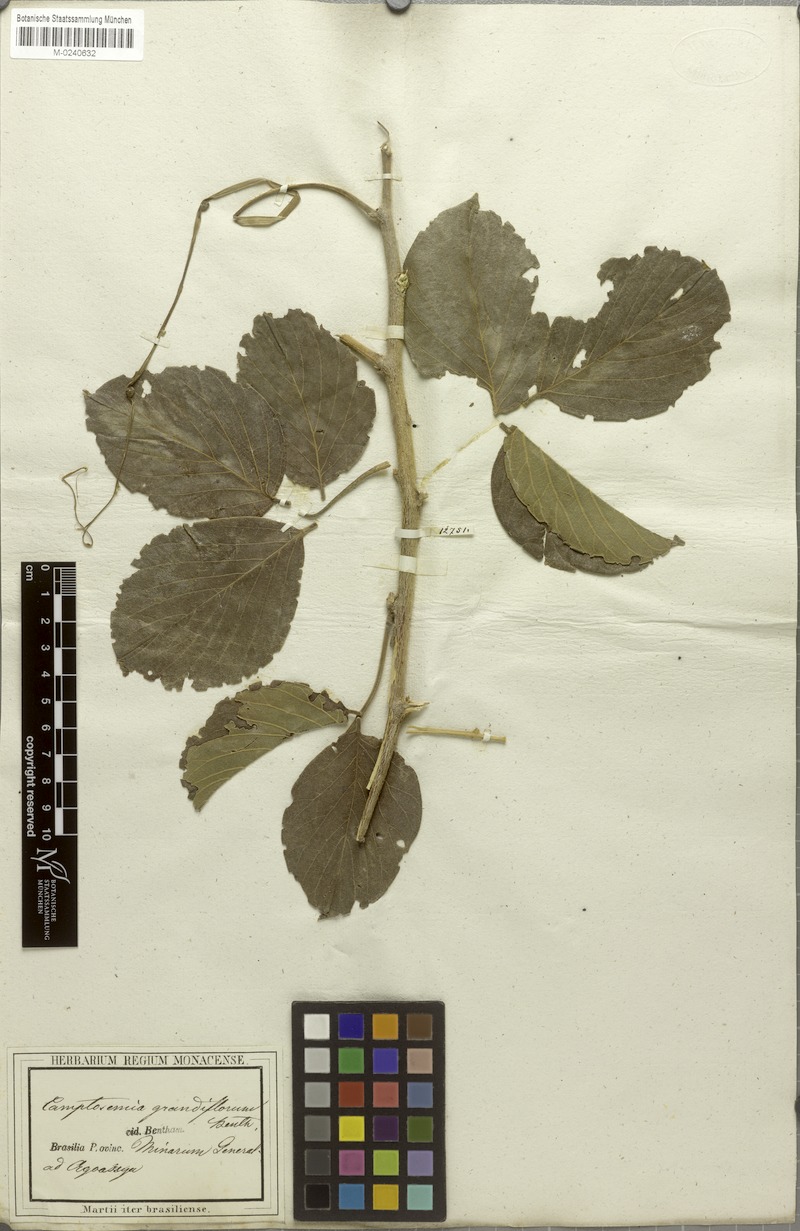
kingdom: Plantae
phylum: Tracheophyta
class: Magnoliopsida
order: Fabales
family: Fabaceae
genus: Camptosema
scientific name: Camptosema spectabile
